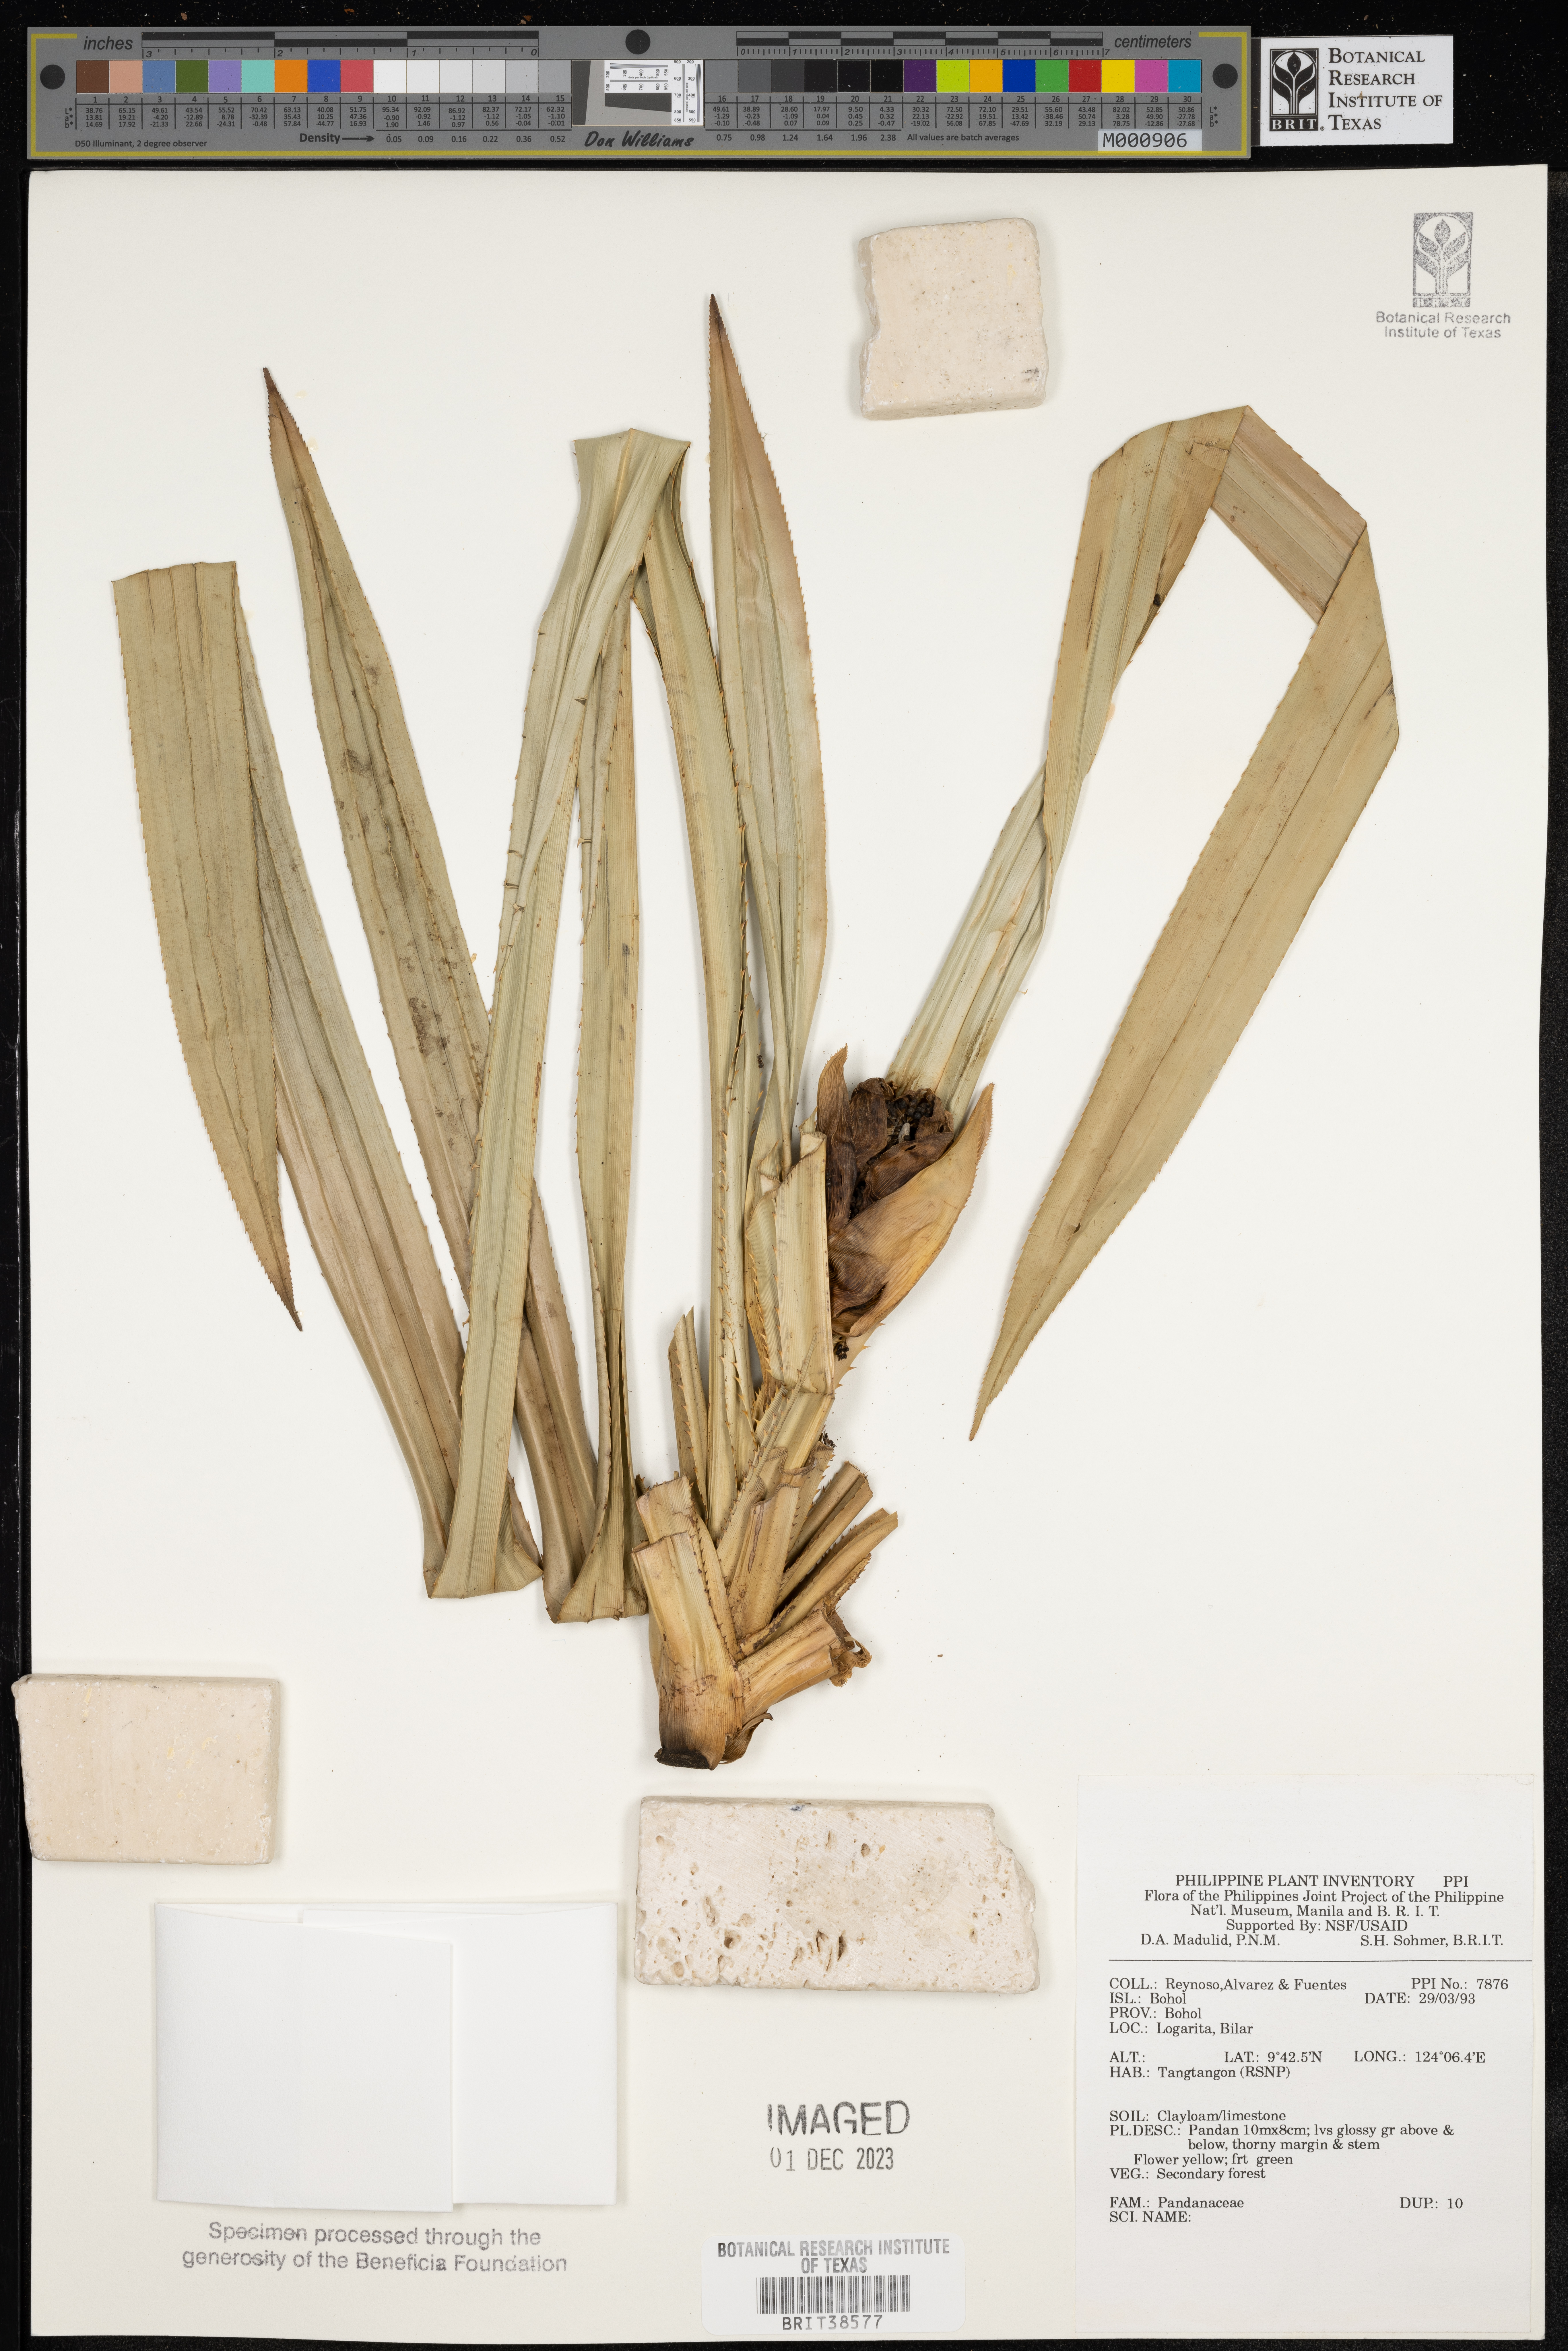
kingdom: Plantae
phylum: Tracheophyta
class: Liliopsida
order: Pandanales
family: Pandanaceae
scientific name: Pandanaceae
